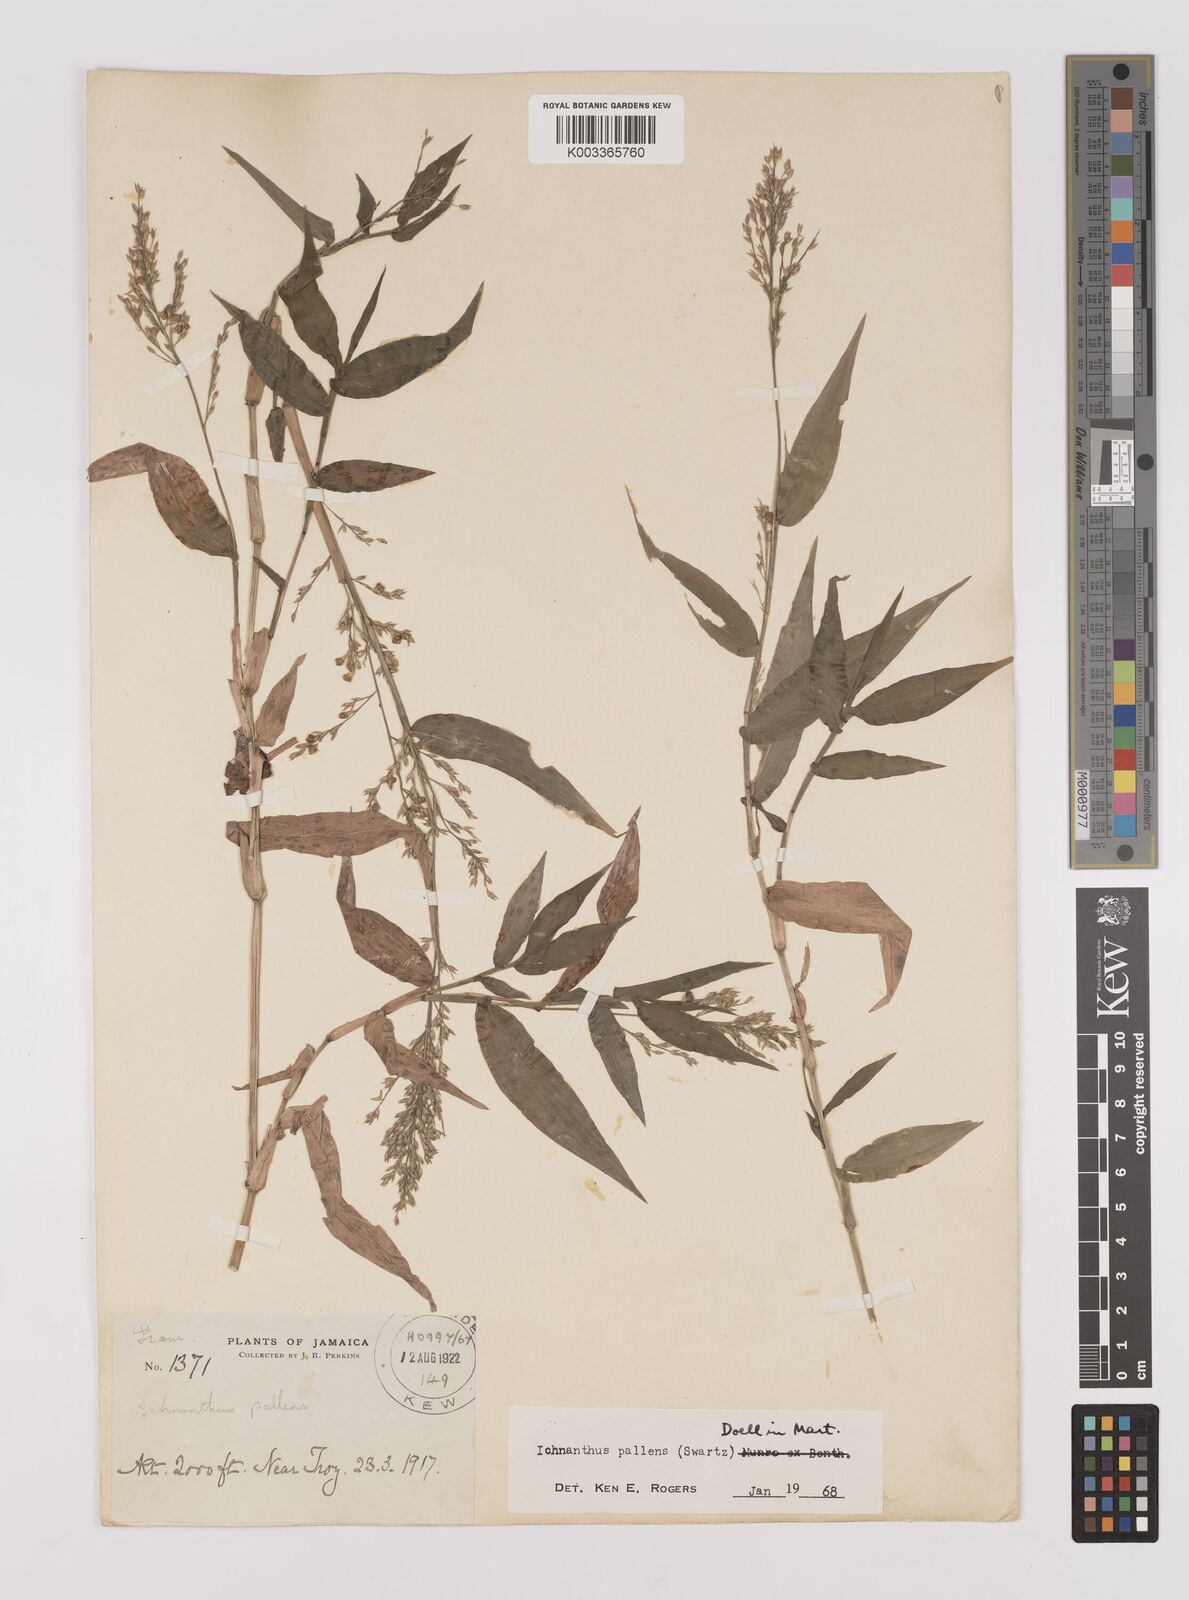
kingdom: Plantae
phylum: Tracheophyta
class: Liliopsida
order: Poales
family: Poaceae
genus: Ichnanthus
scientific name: Ichnanthus pallens
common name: Water grass
